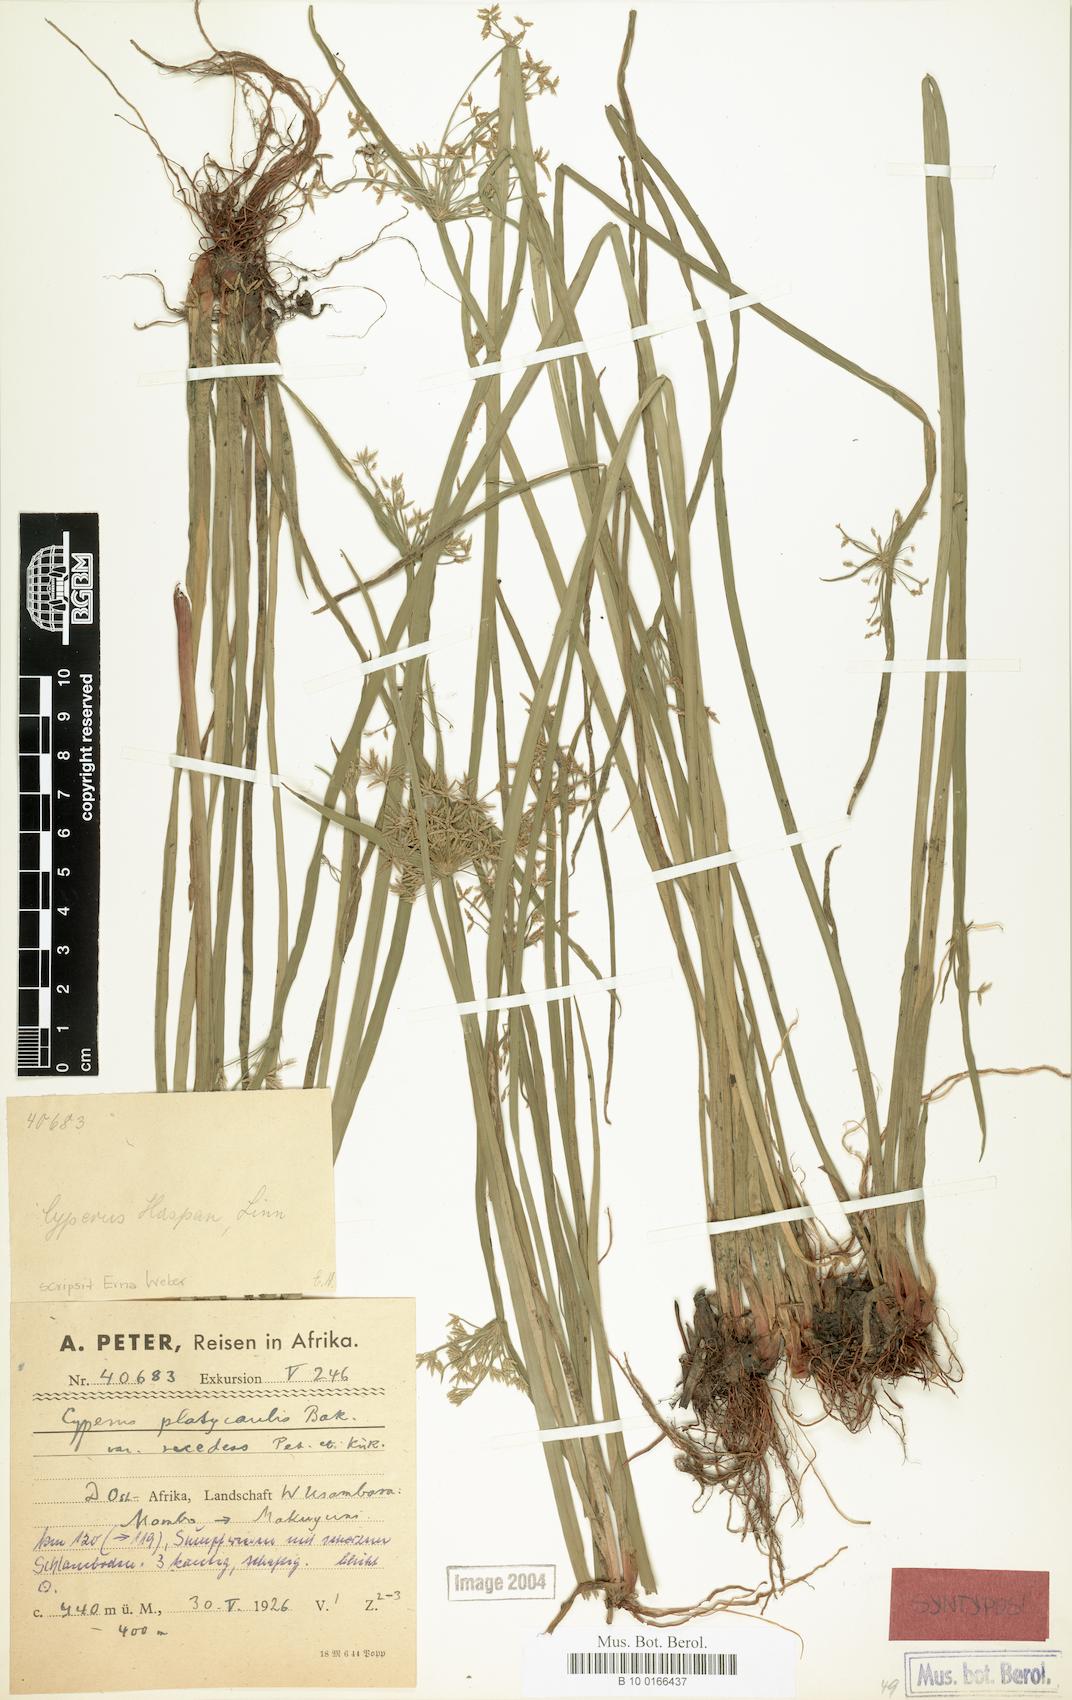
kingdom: Plantae
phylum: Tracheophyta
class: Liliopsida
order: Poales
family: Cyperaceae
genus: Cyperus
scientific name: Cyperus denudatus
